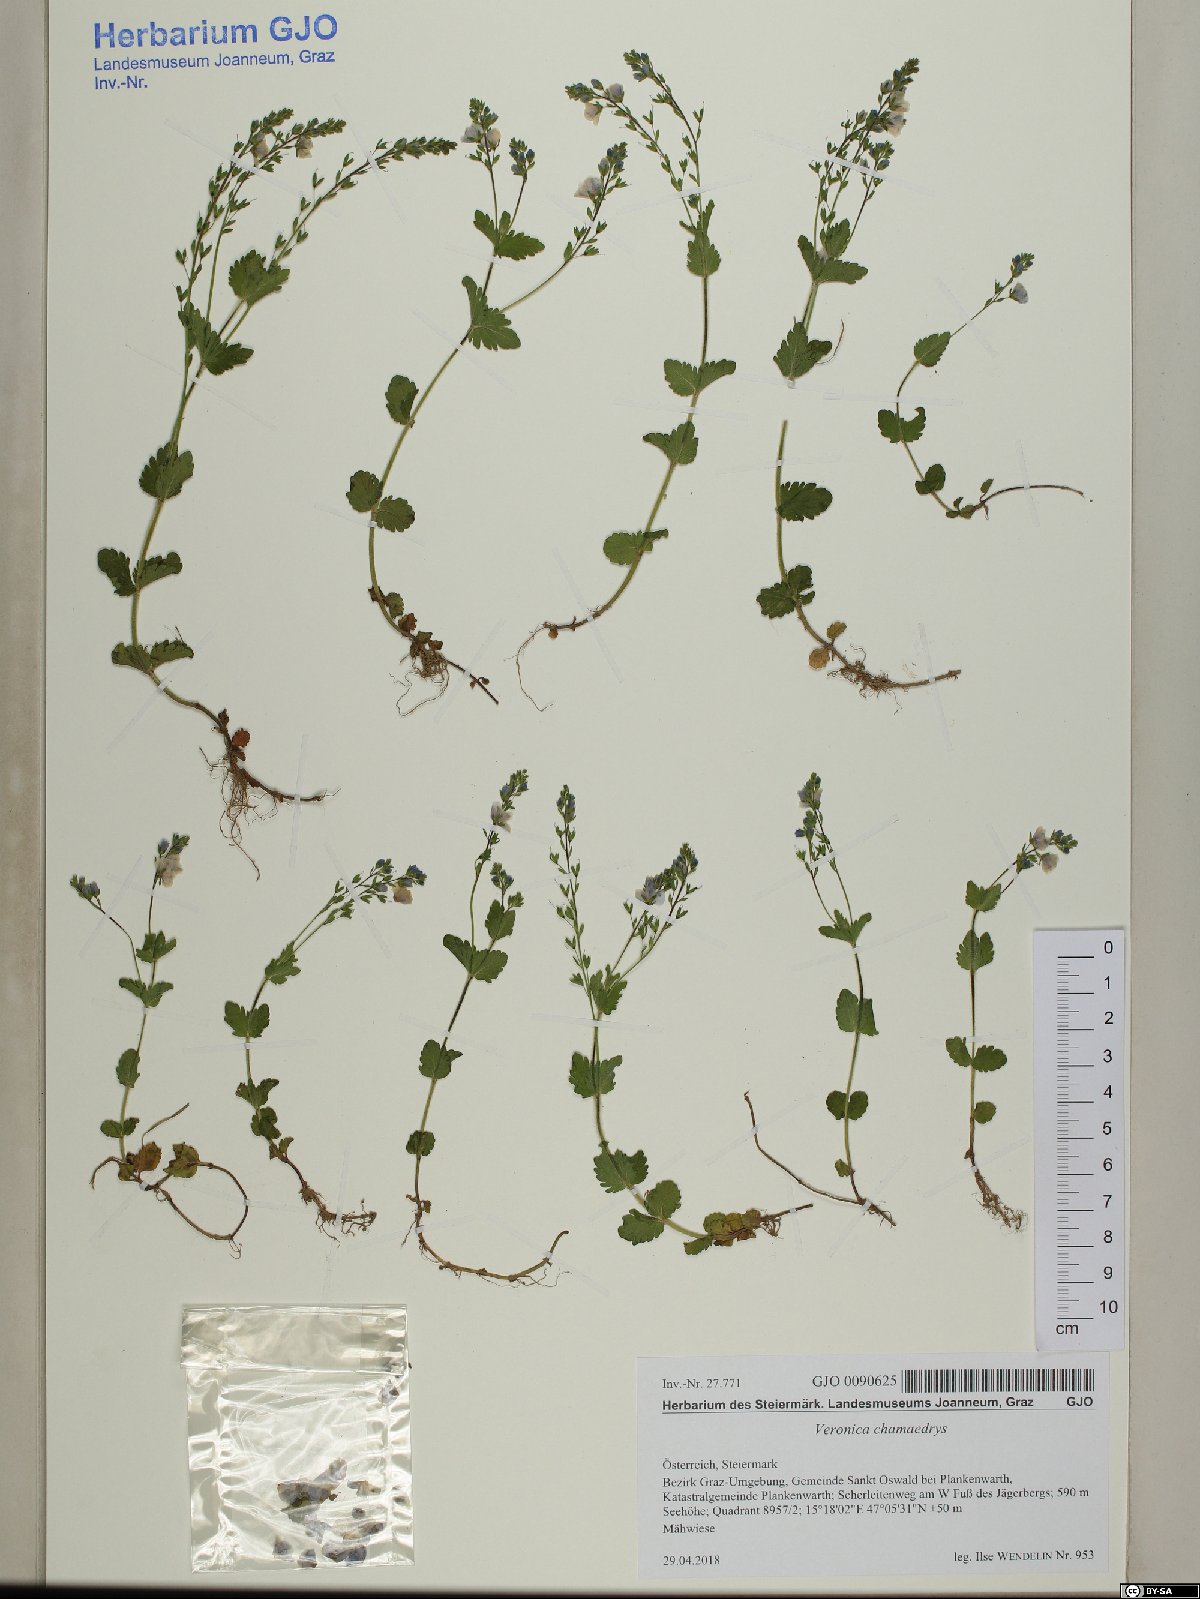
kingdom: Plantae
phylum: Tracheophyta
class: Magnoliopsida
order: Lamiales
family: Plantaginaceae
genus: Veronica
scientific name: Veronica chamaedrys
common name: Germander speedwell
